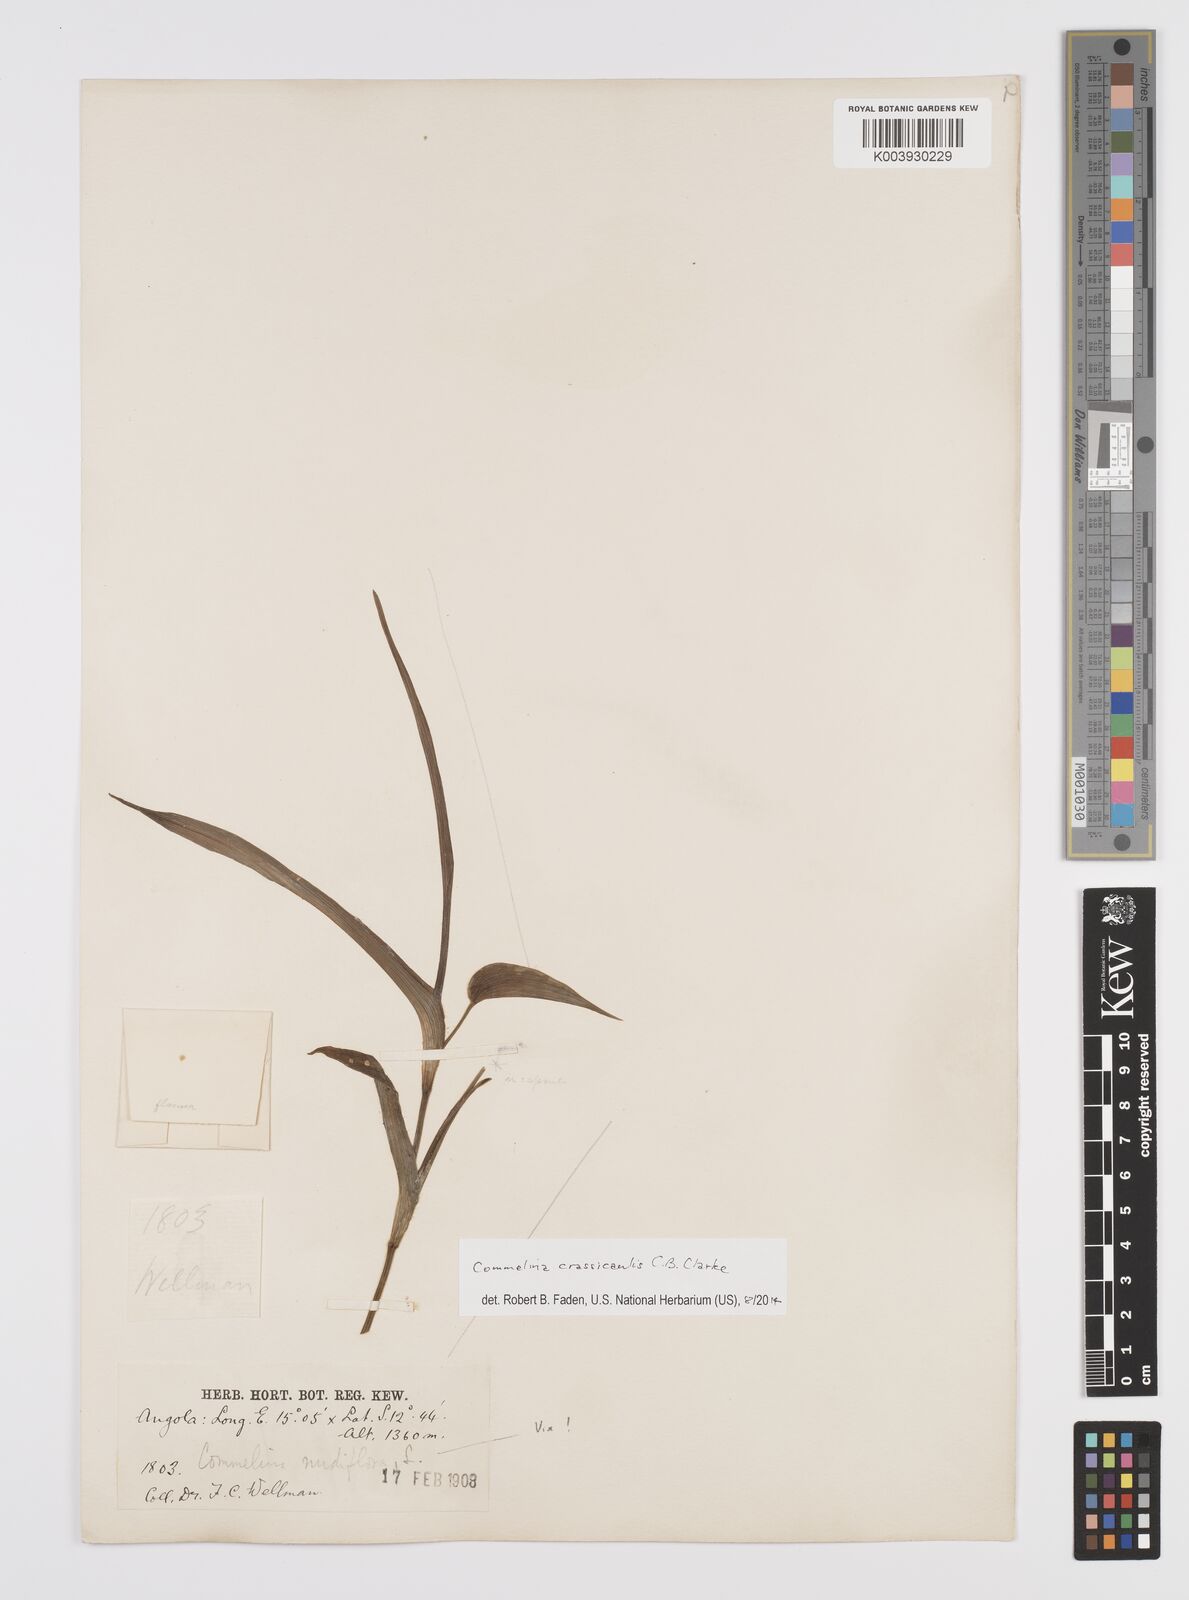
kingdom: Plantae
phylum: Tracheophyta
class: Liliopsida
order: Commelinales
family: Commelinaceae
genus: Commelina
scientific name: Commelina crassicaulis
